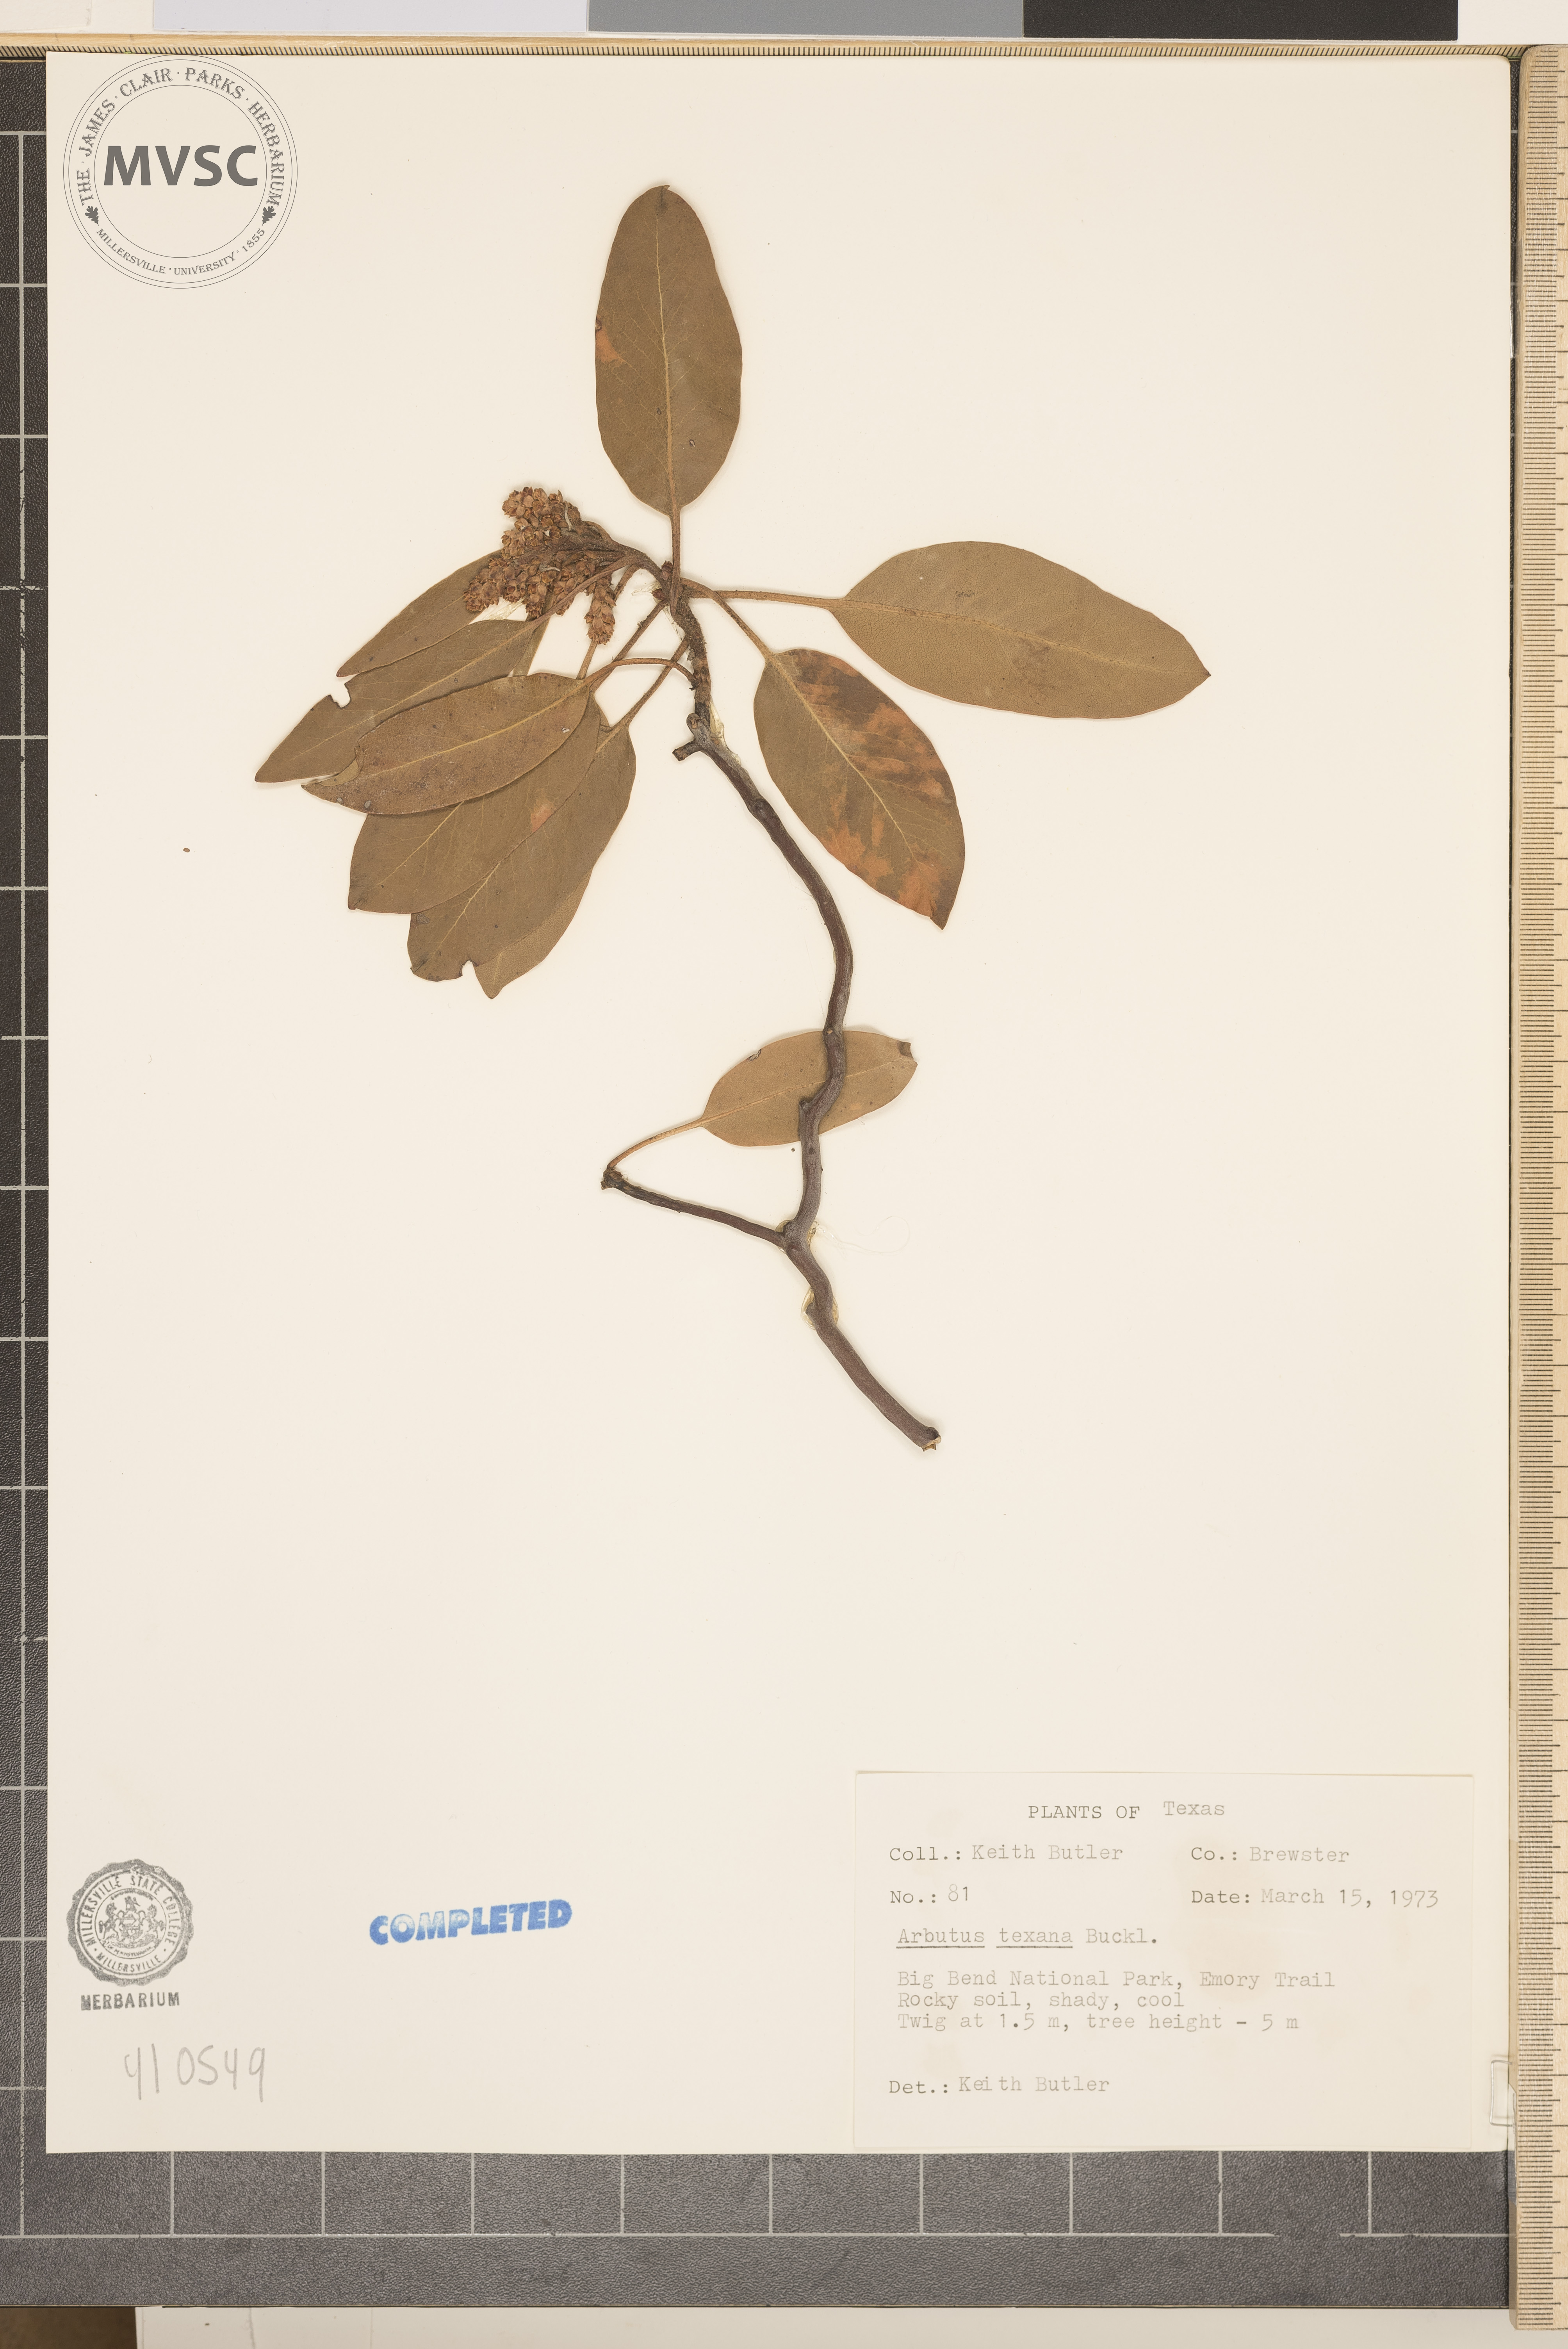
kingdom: Plantae
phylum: Tracheophyta
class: Magnoliopsida
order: Ericales
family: Ericaceae
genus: Arbutus
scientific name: Arbutus xalapensis
